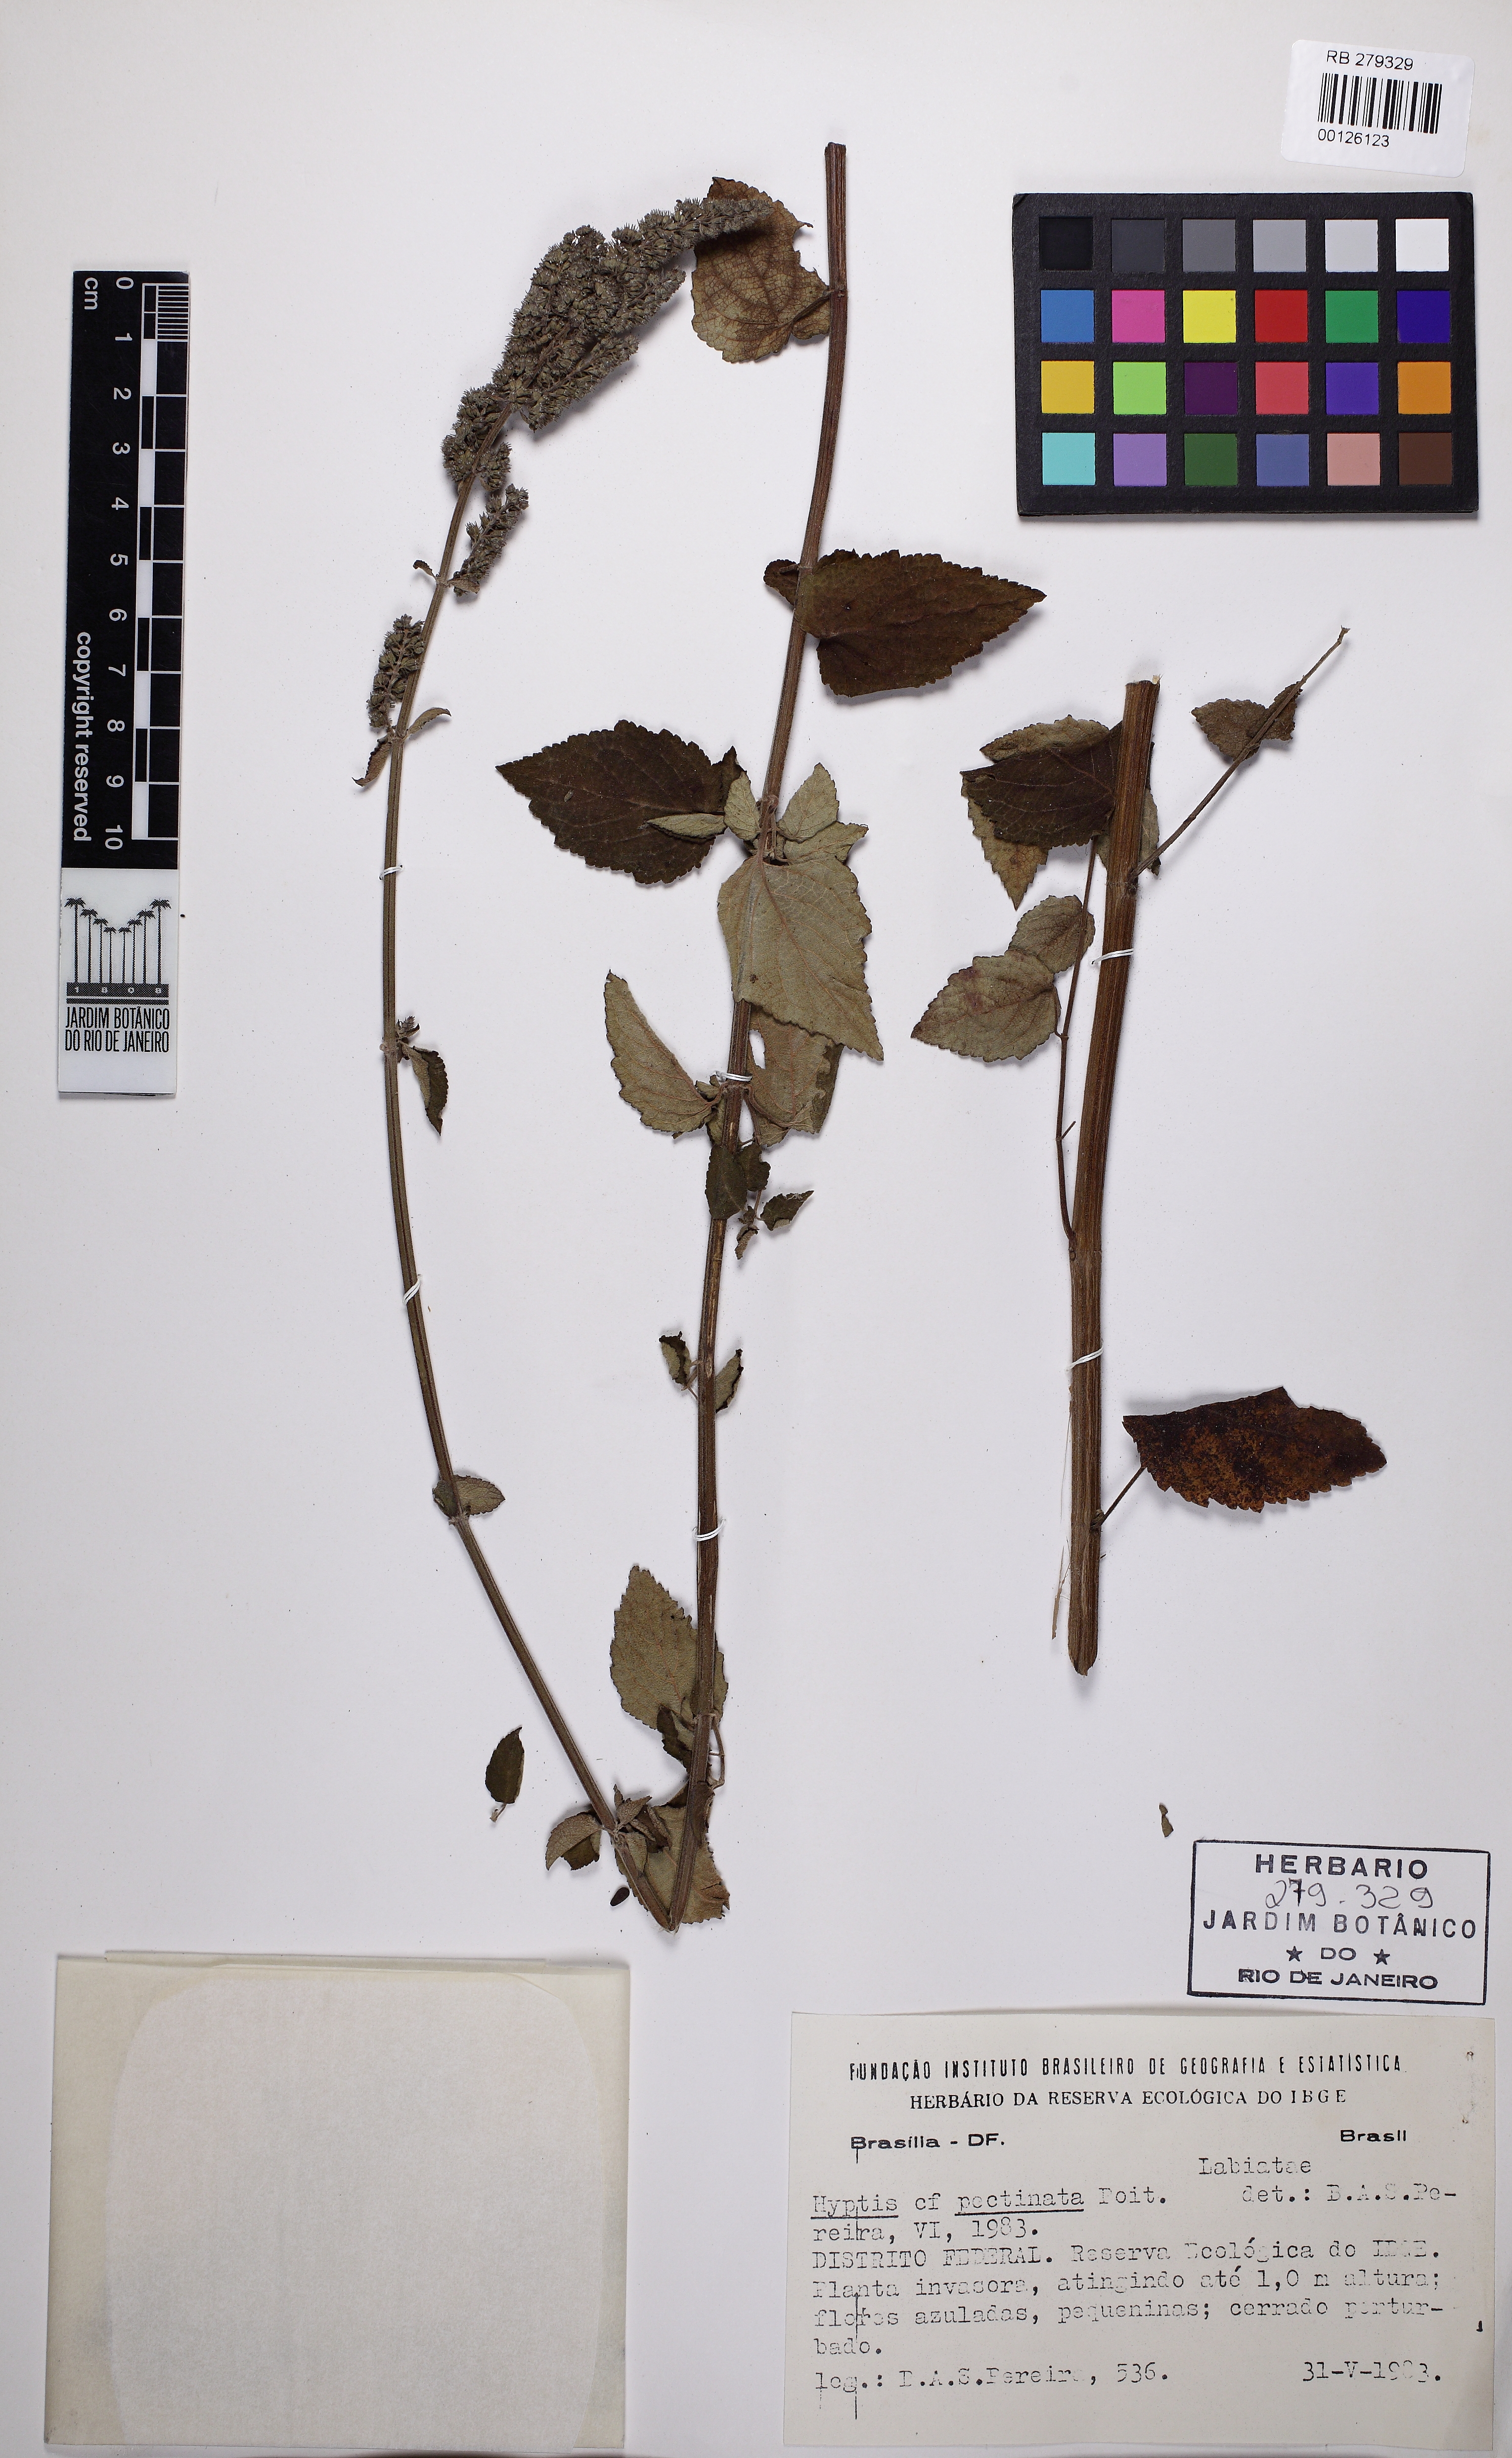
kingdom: Plantae
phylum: Tracheophyta
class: Magnoliopsida
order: Lamiales
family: Lamiaceae
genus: Mesosphaerum
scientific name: Mesosphaerum pectinatum
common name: Comb hyptis
